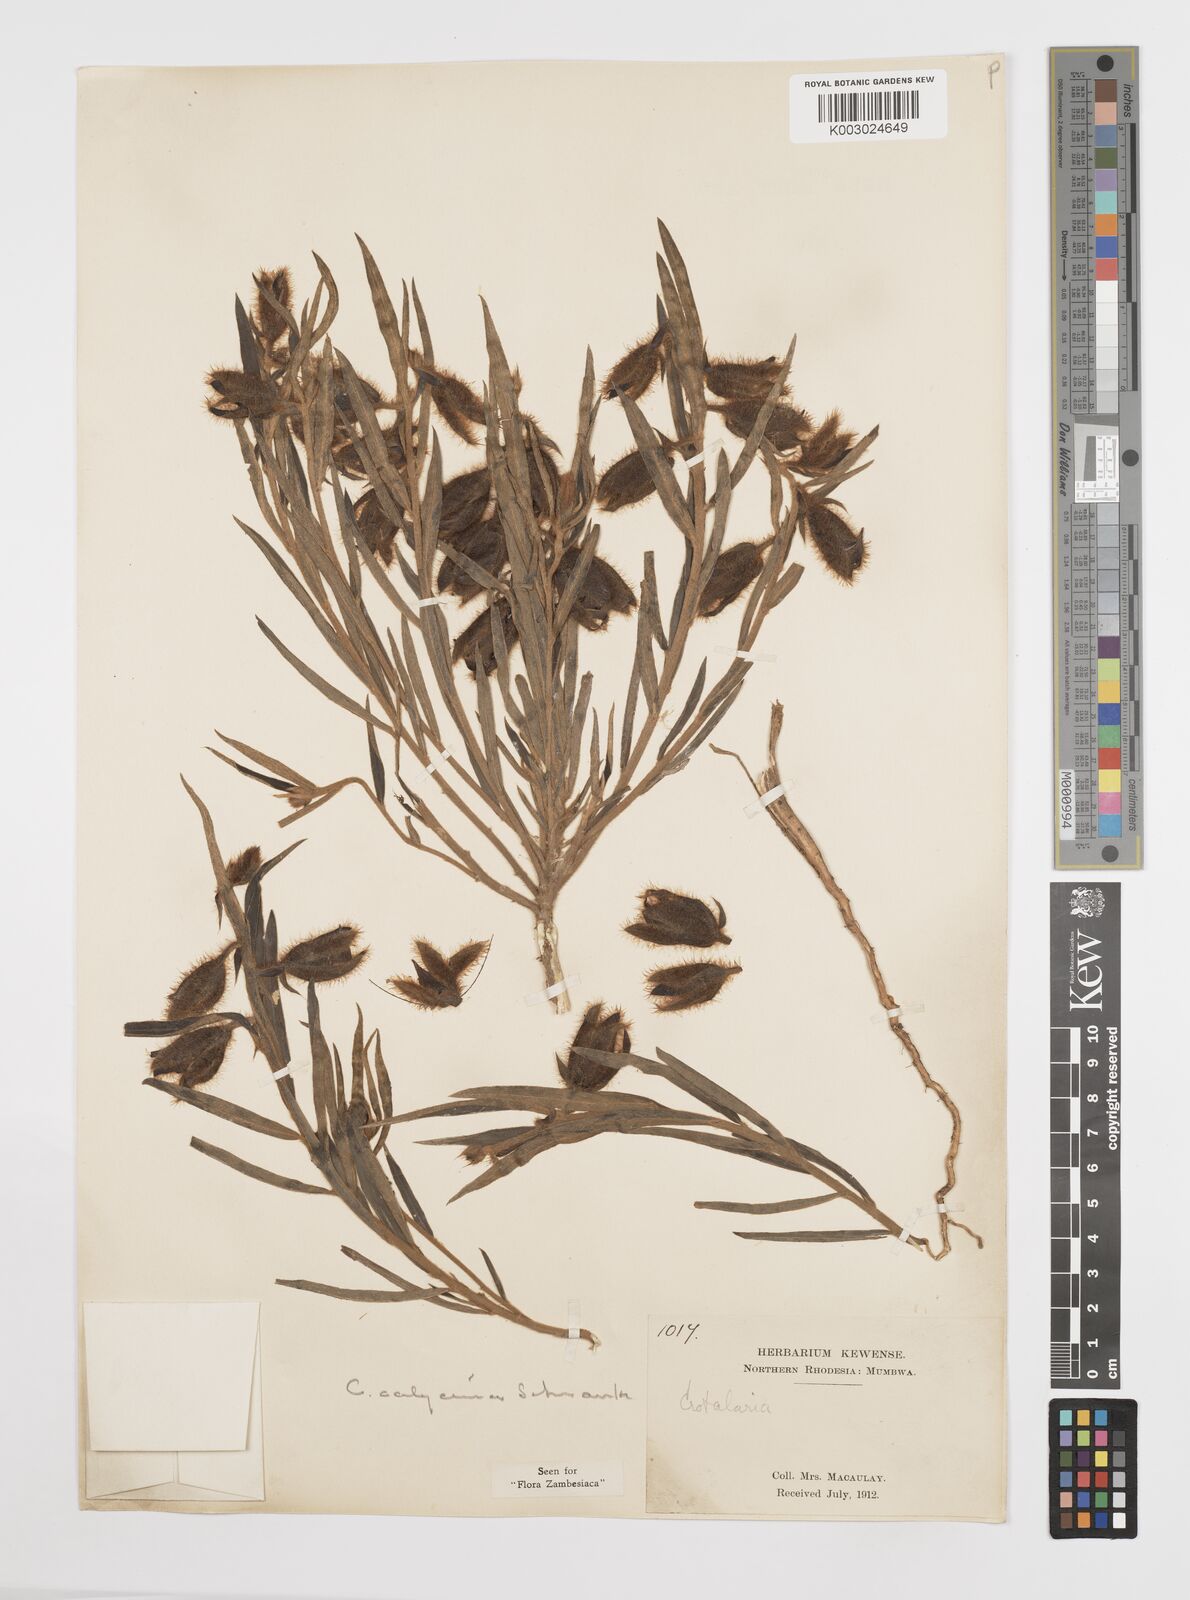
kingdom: Plantae
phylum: Tracheophyta
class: Magnoliopsida
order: Fabales
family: Fabaceae
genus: Crotalaria
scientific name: Crotalaria calycina
